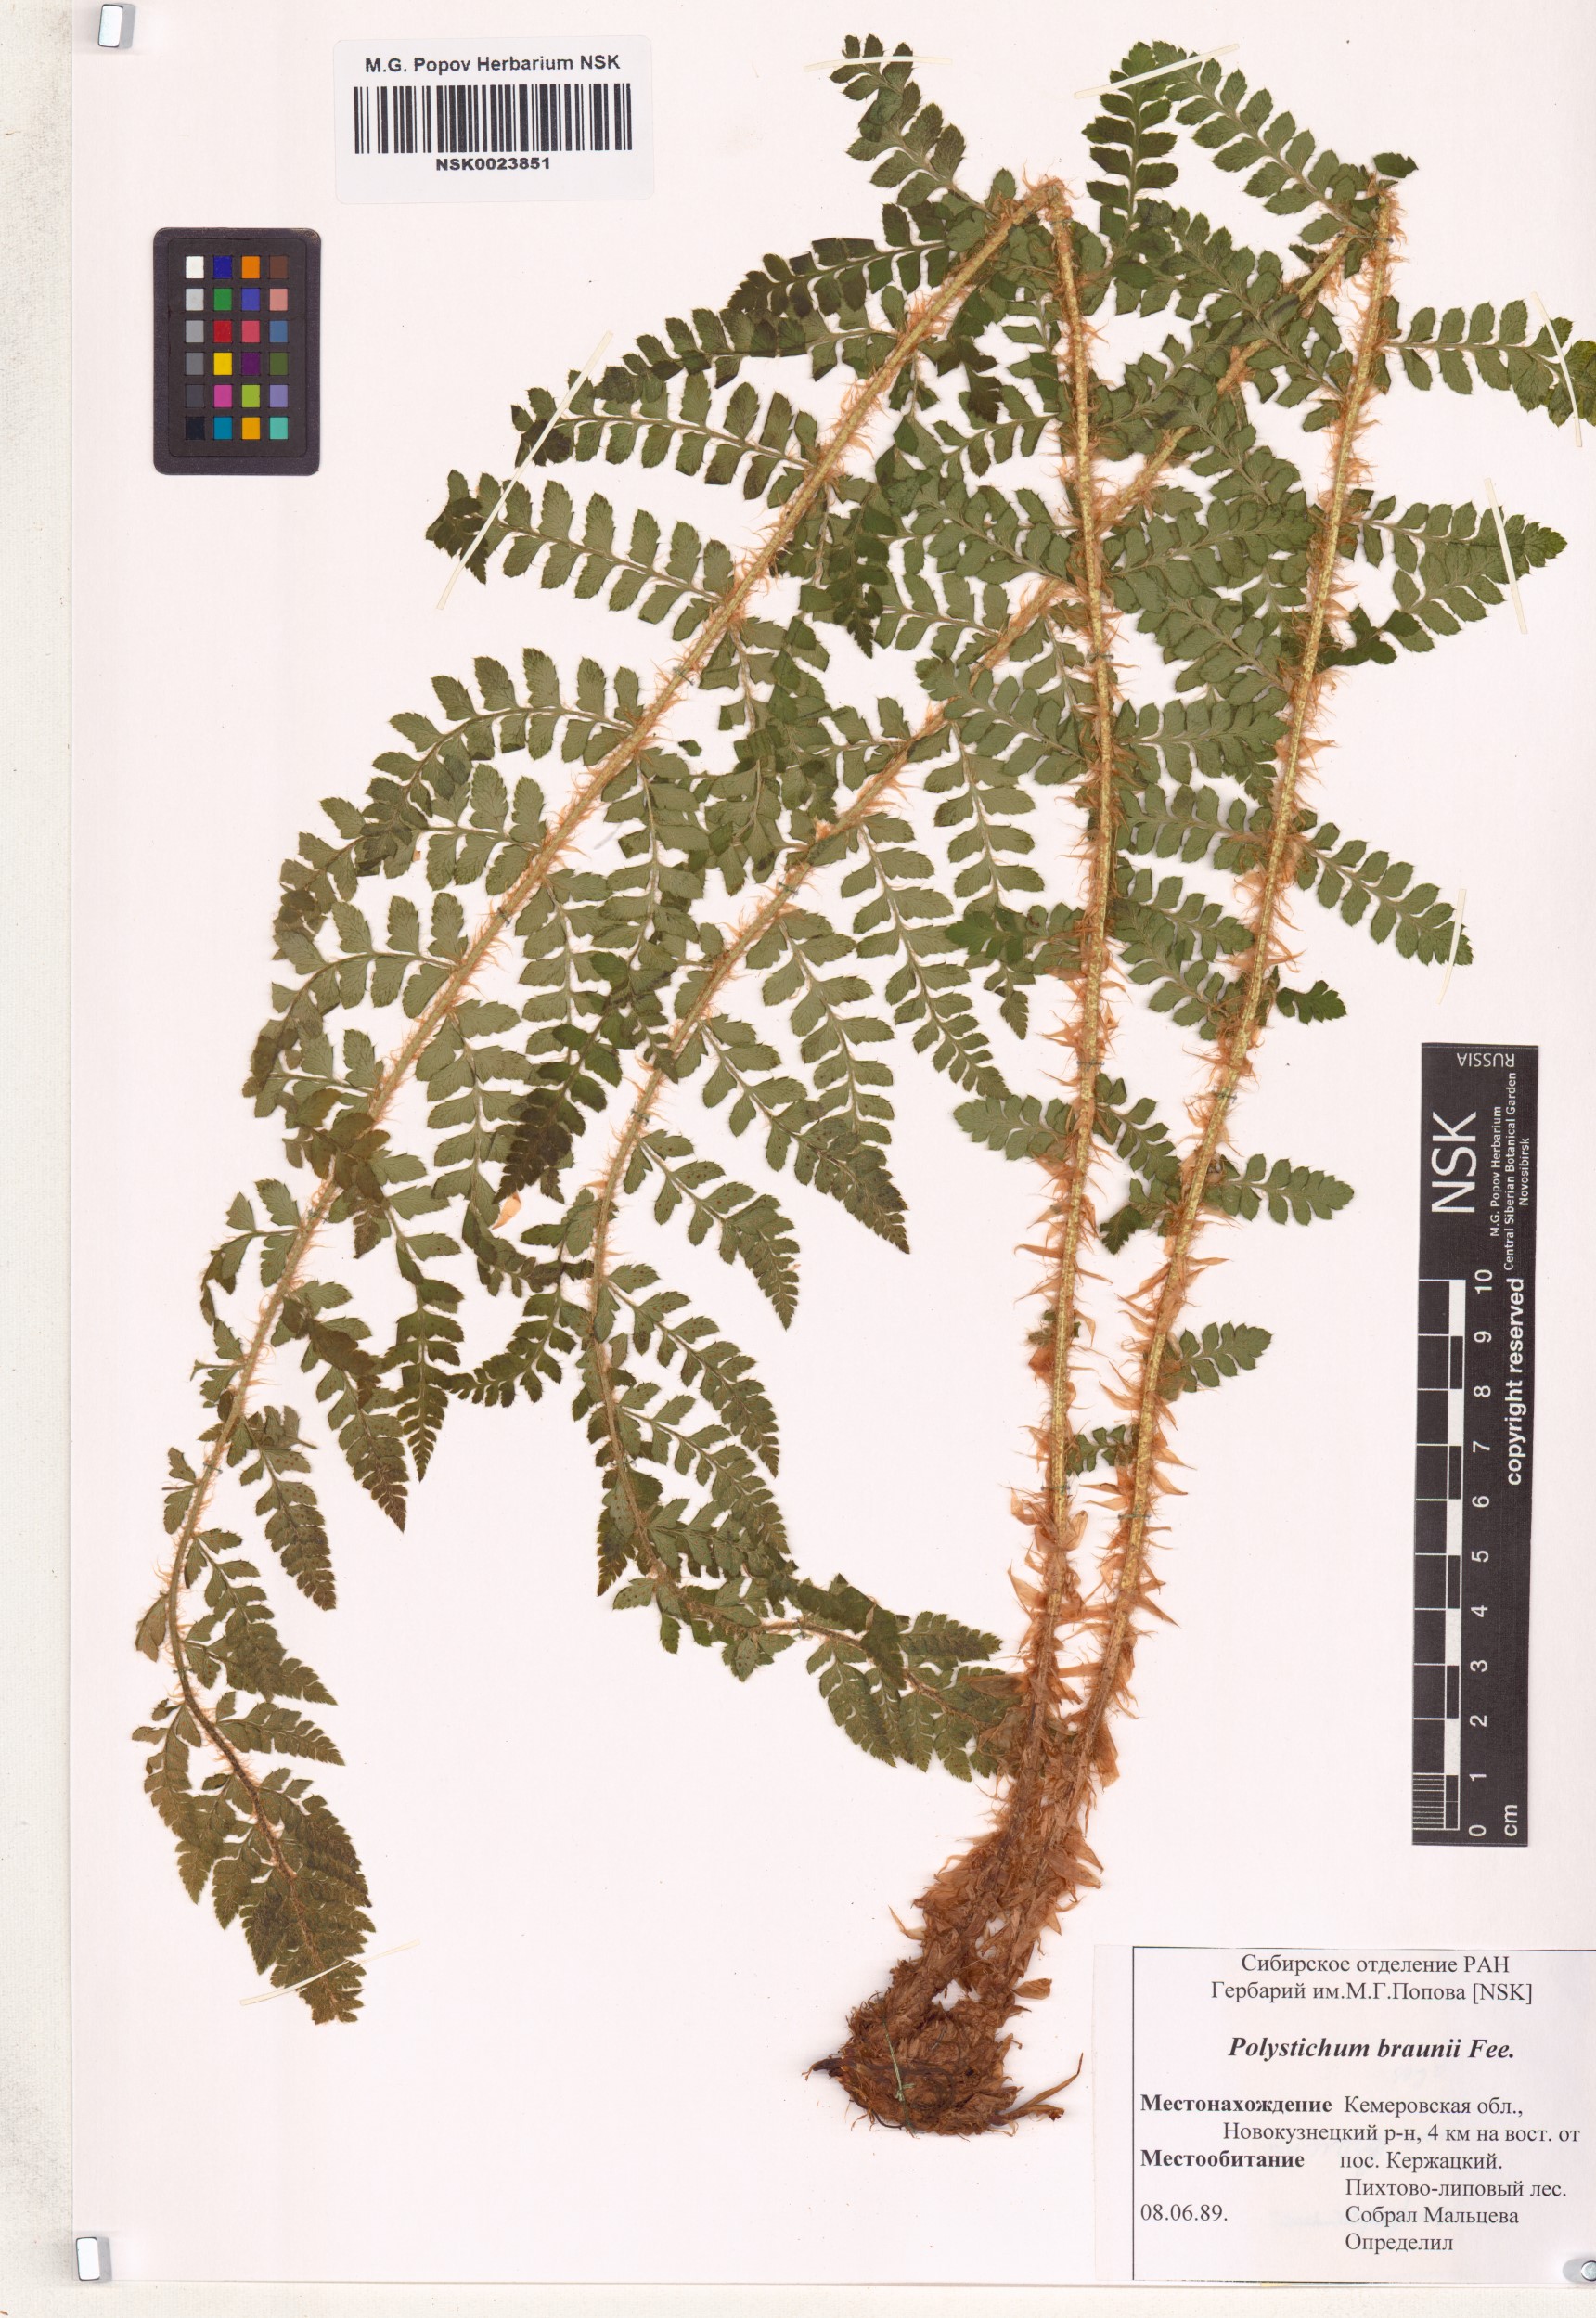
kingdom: Plantae
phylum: Tracheophyta
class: Polypodiopsida
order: Polypodiales
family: Dryopteridaceae
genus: Polystichum
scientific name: Polystichum braunii
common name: Braun's holly fern
